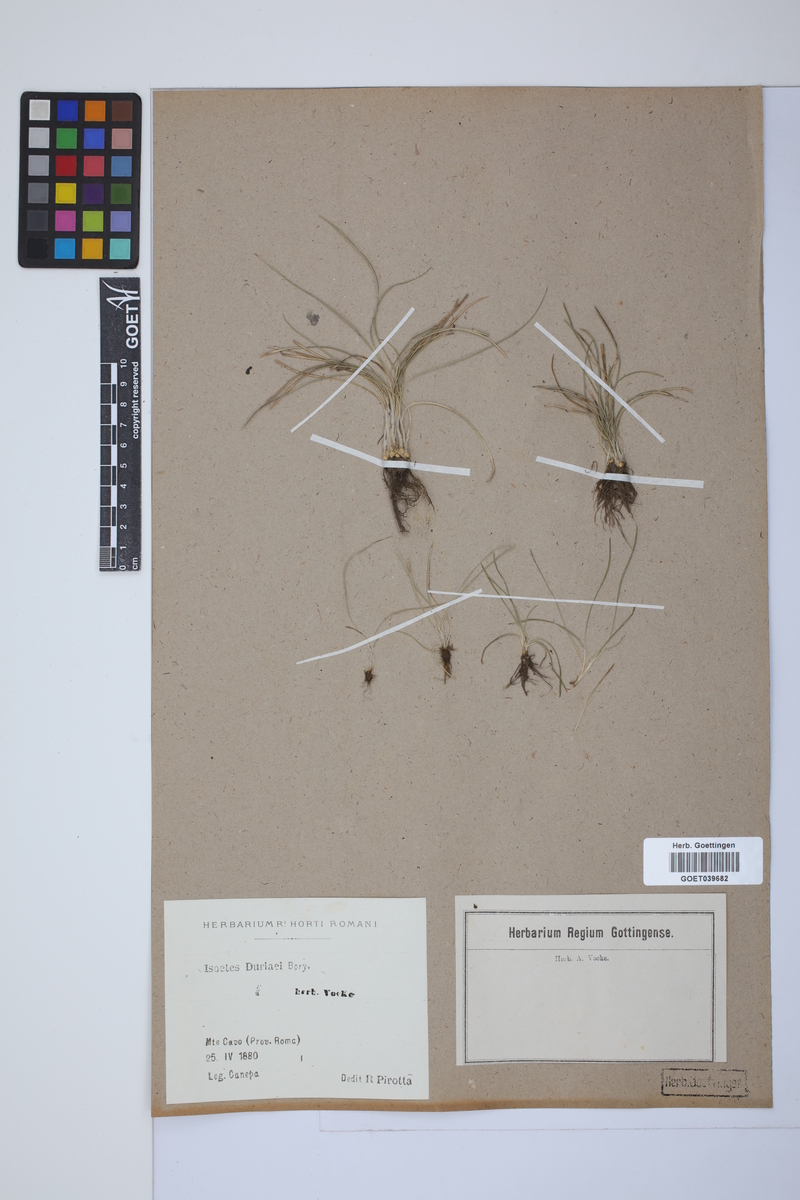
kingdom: Plantae
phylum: Tracheophyta
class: Lycopodiopsida
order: Isoetales
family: Isoetaceae
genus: Isoetes
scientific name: Isoetes duriei
